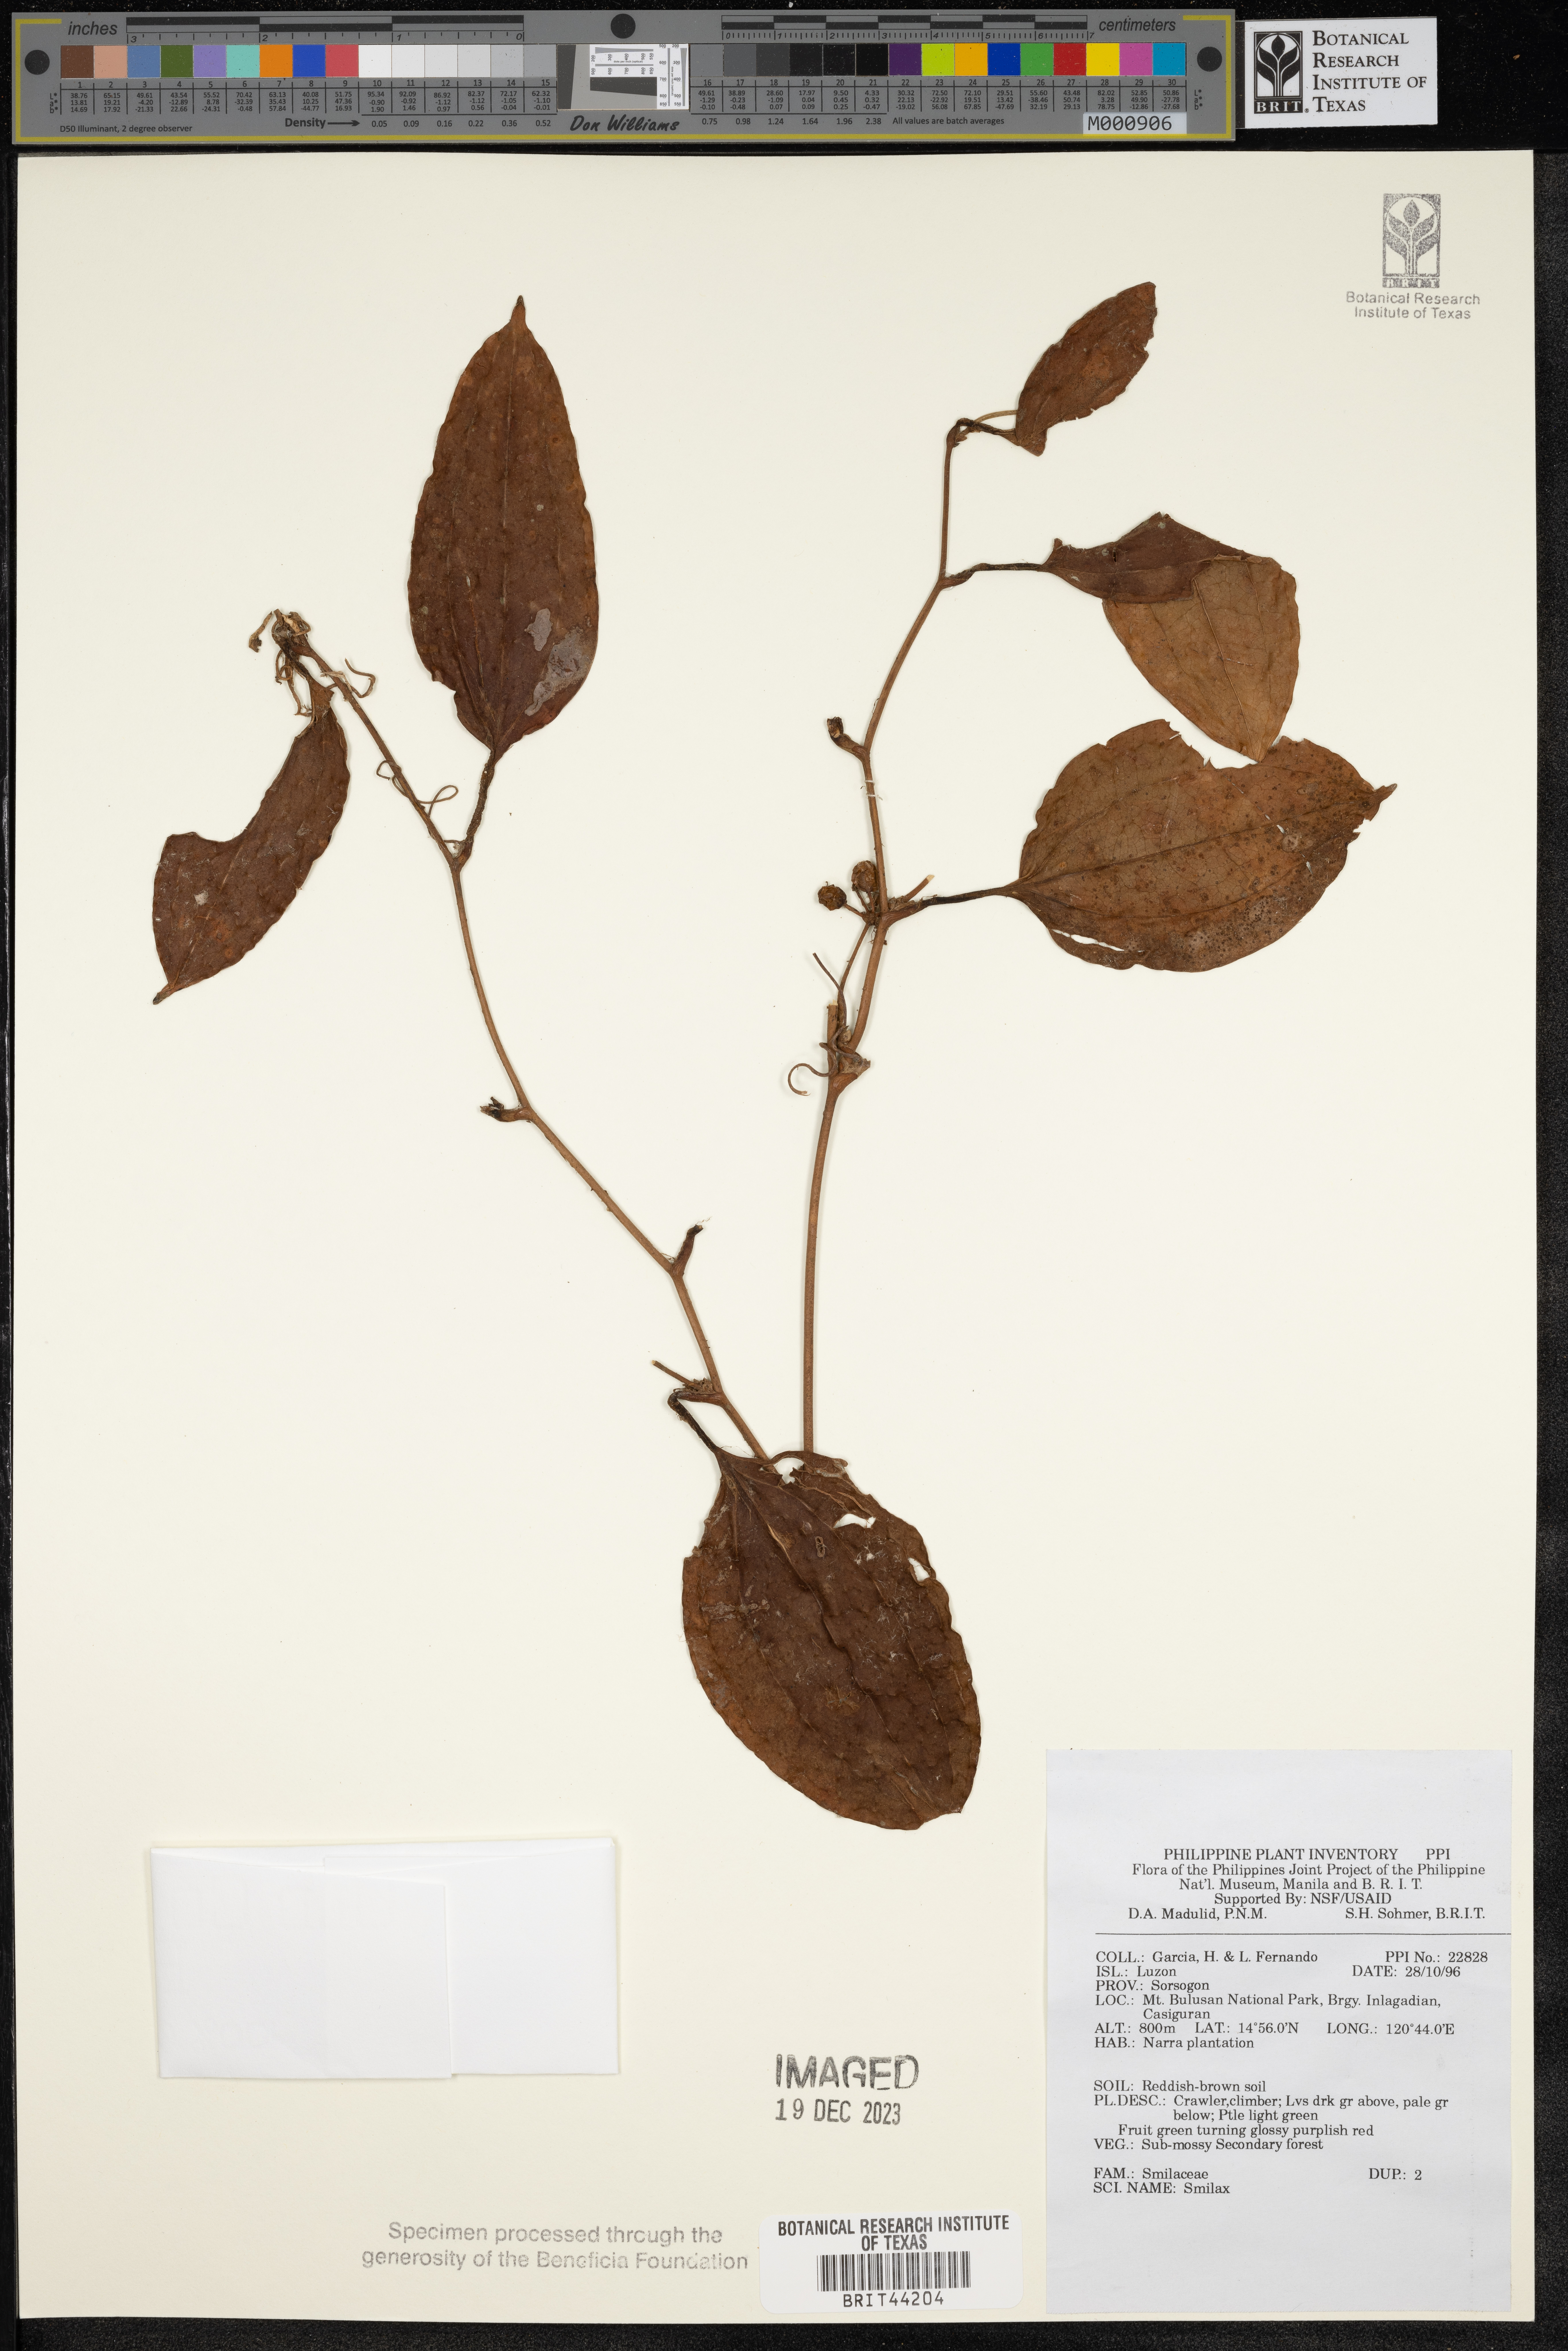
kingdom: Plantae
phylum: Tracheophyta
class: Liliopsida
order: Liliales
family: Smilacaceae
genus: Smilax
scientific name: Smilax
